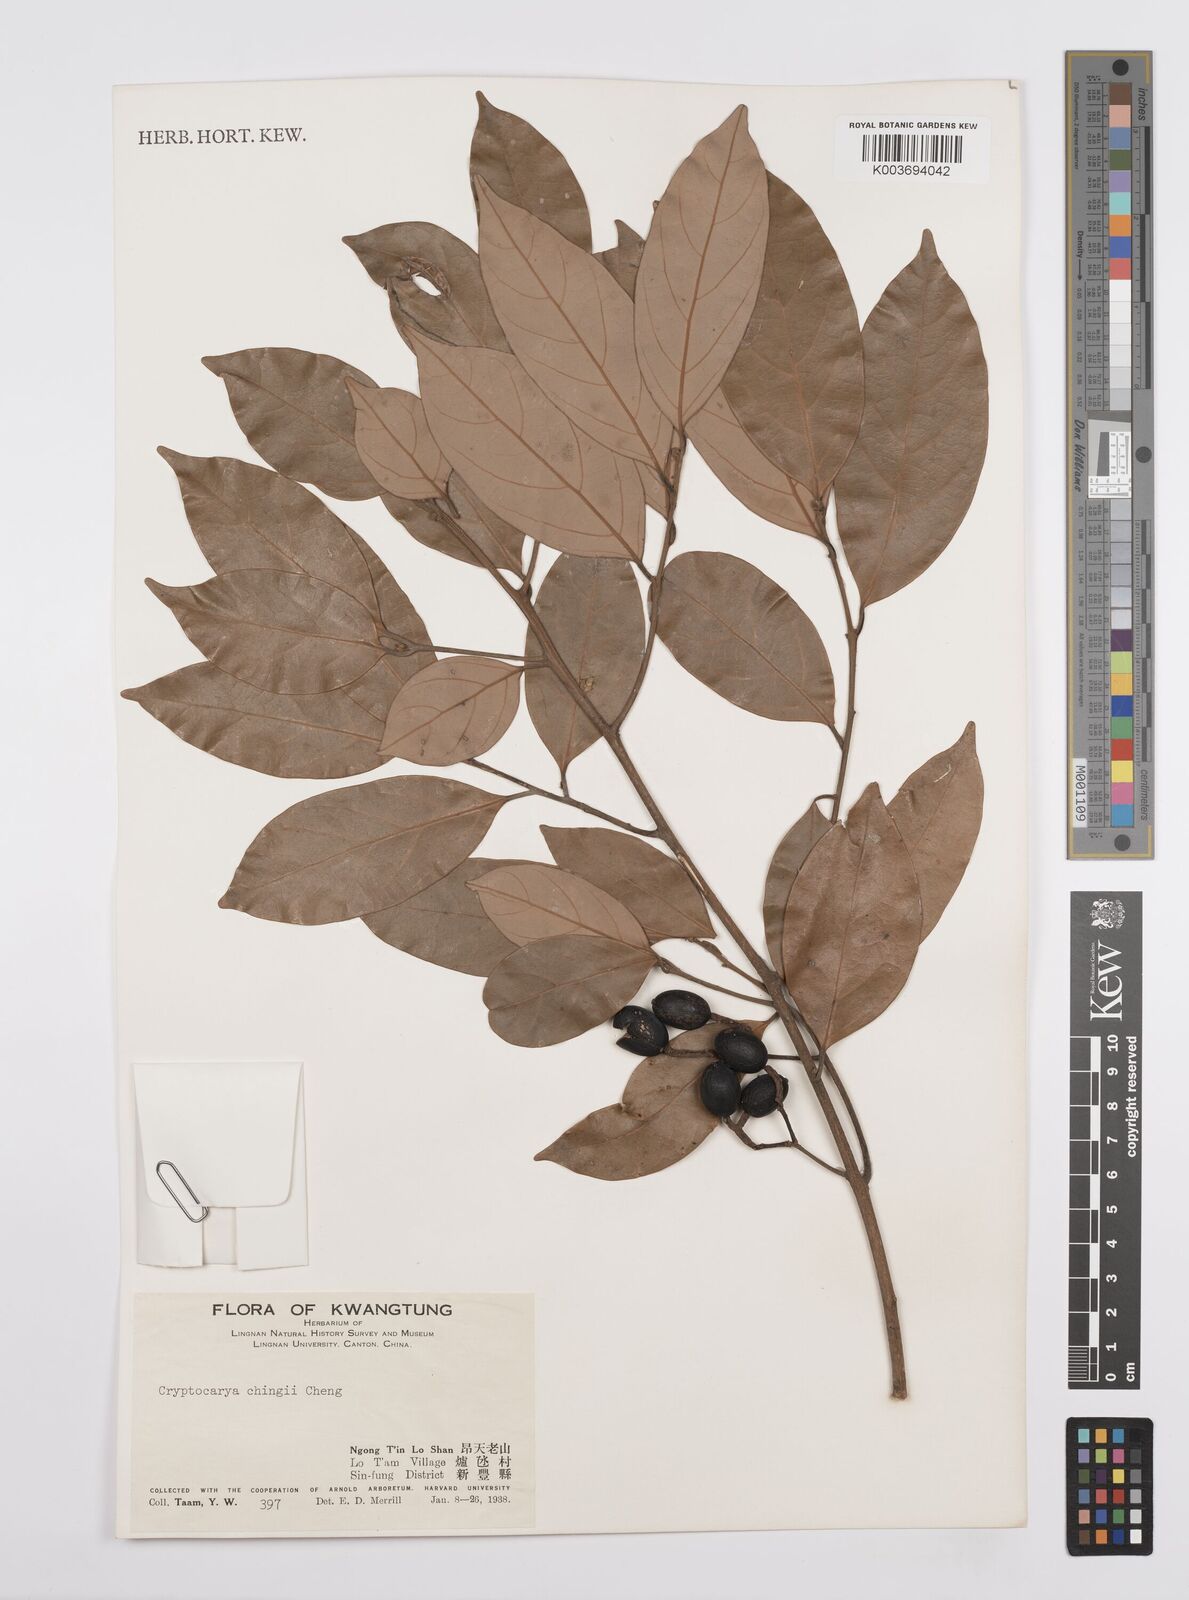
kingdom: Plantae
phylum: Tracheophyta
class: Magnoliopsida
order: Laurales
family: Lauraceae
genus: Cryptocarya
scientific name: Cryptocarya chingii
